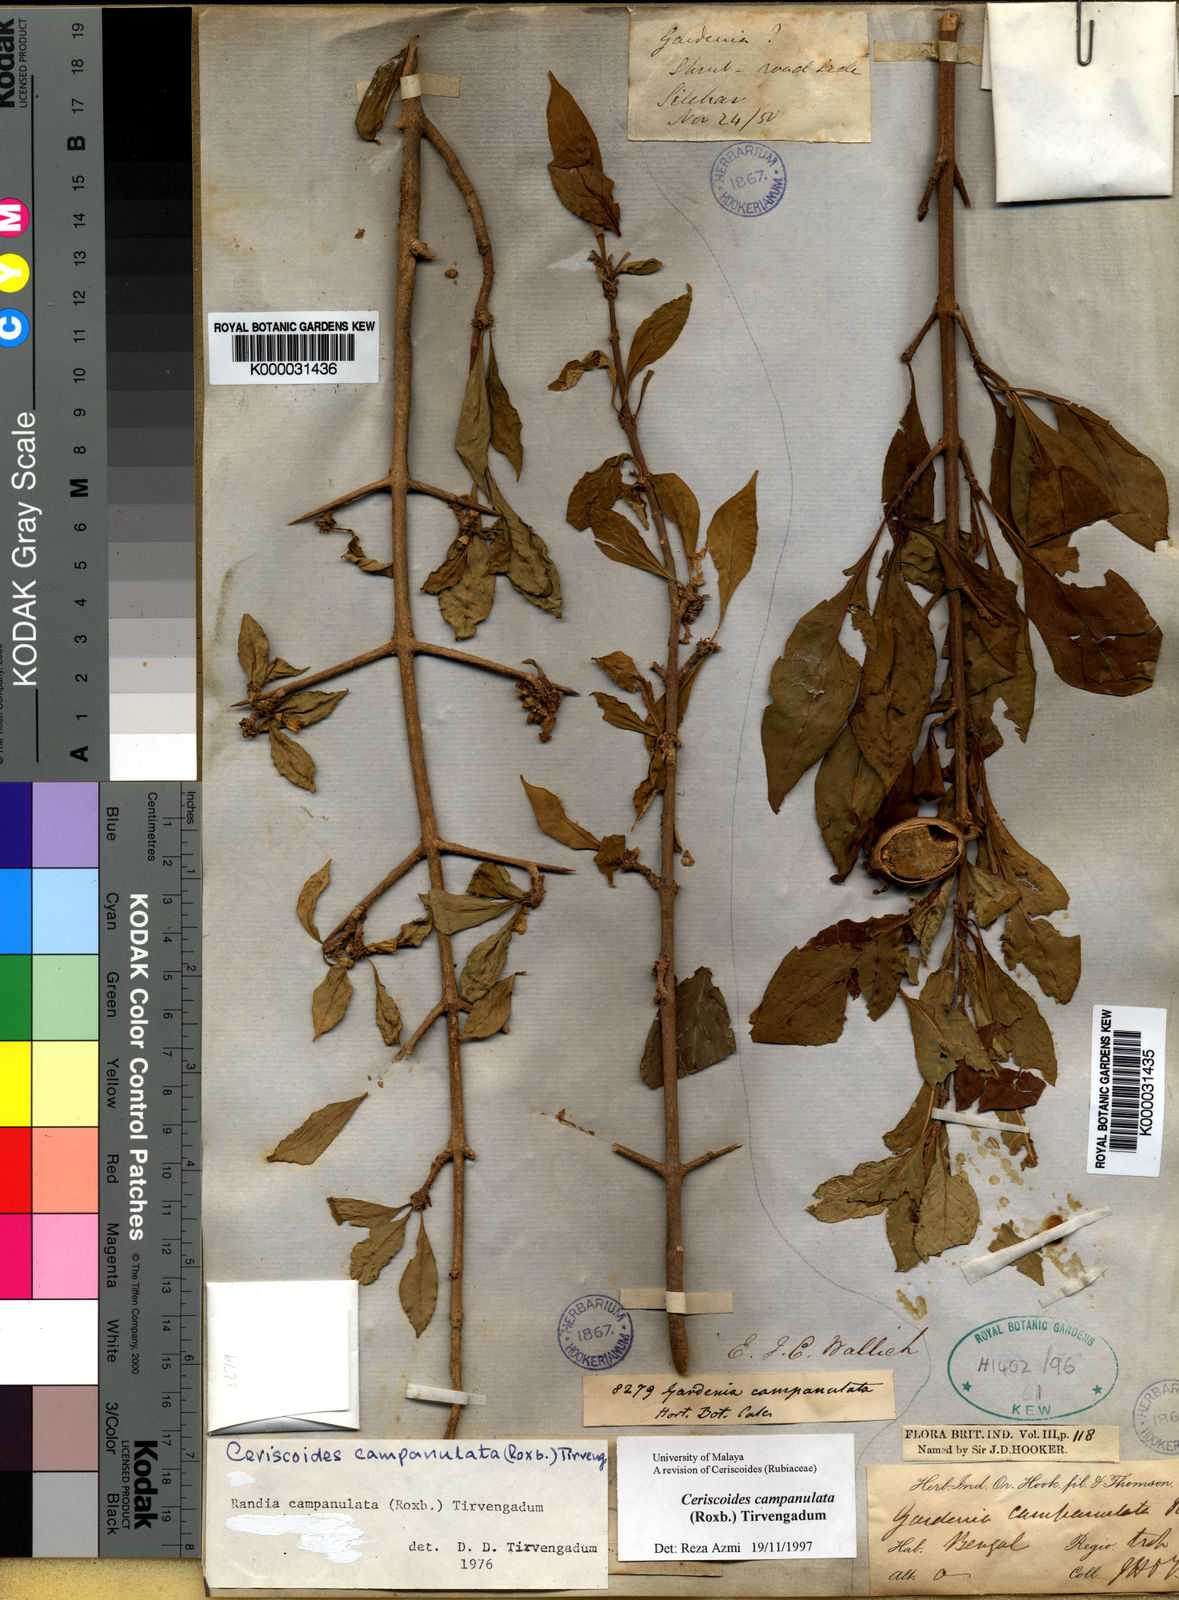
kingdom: Plantae
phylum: Tracheophyta
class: Magnoliopsida
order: Gentianales
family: Rubiaceae
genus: Gardenia
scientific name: Gardenia
